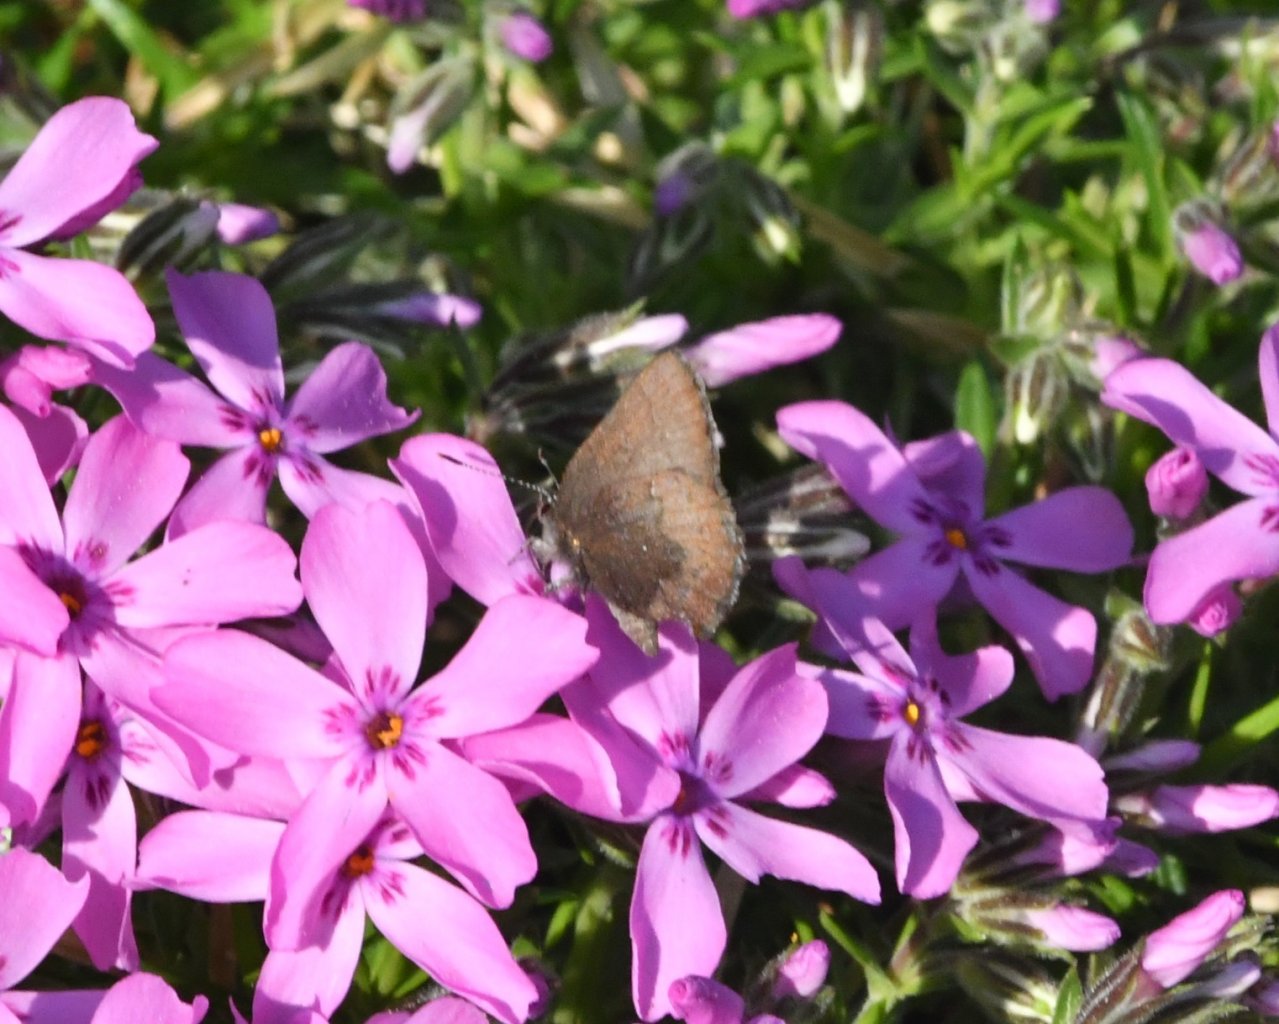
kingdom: Animalia
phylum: Arthropoda
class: Insecta
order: Lepidoptera
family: Lycaenidae
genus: Incisalia
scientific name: Incisalia irioides
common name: Brown Elfin
